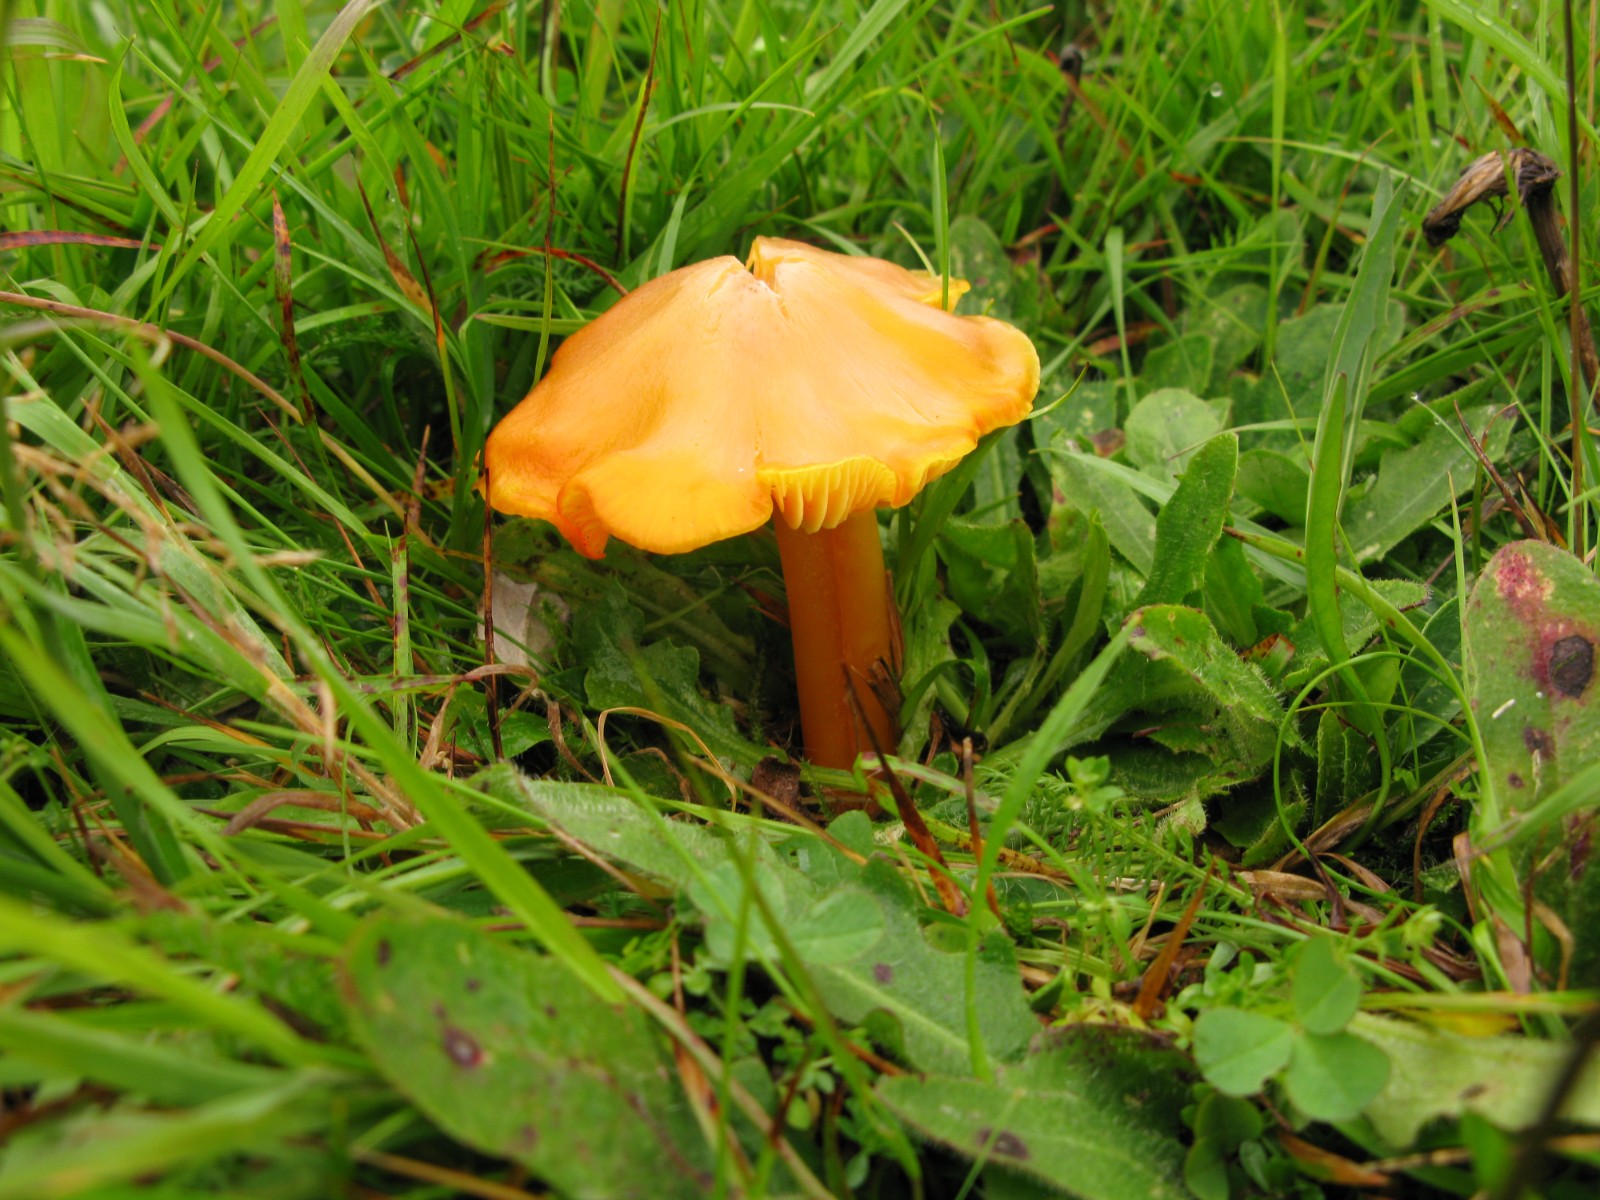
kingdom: Fungi
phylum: Basidiomycota
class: Agaricomycetes
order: Agaricales
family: Hygrophoraceae
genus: Hygrocybe
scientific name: Hygrocybe chlorophana
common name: gul vokshat
